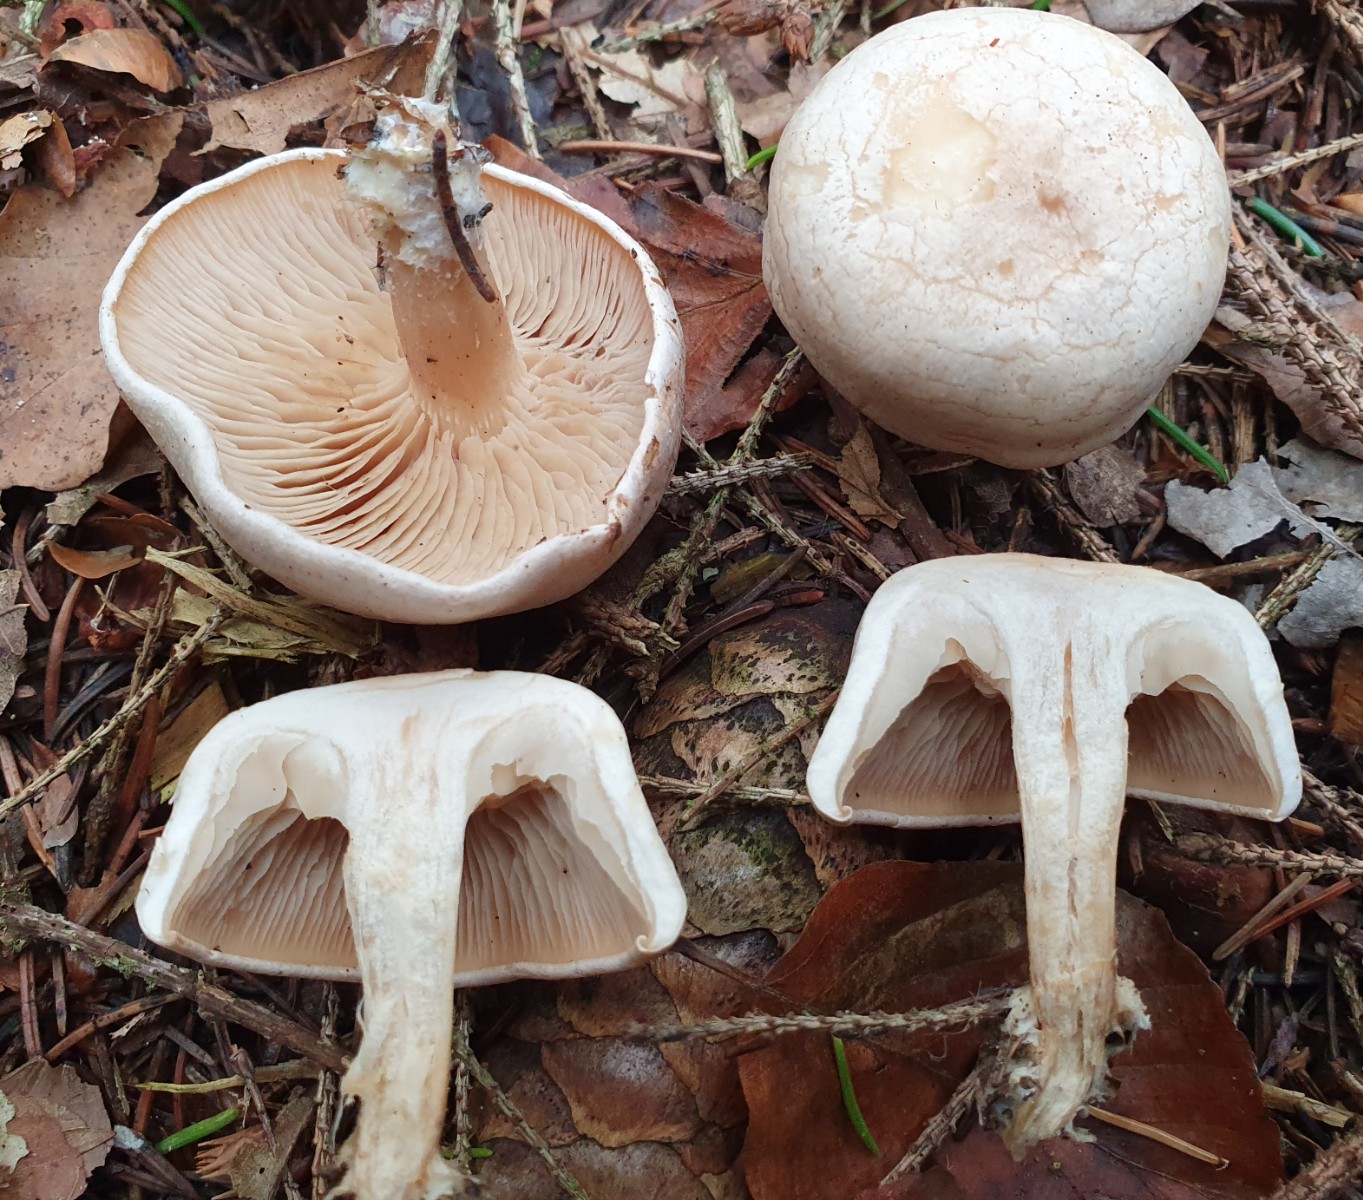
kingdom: Fungi
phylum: Basidiomycota
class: Agaricomycetes
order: Agaricales
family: Tricholomataceae
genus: Clitocybe
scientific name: Clitocybe
